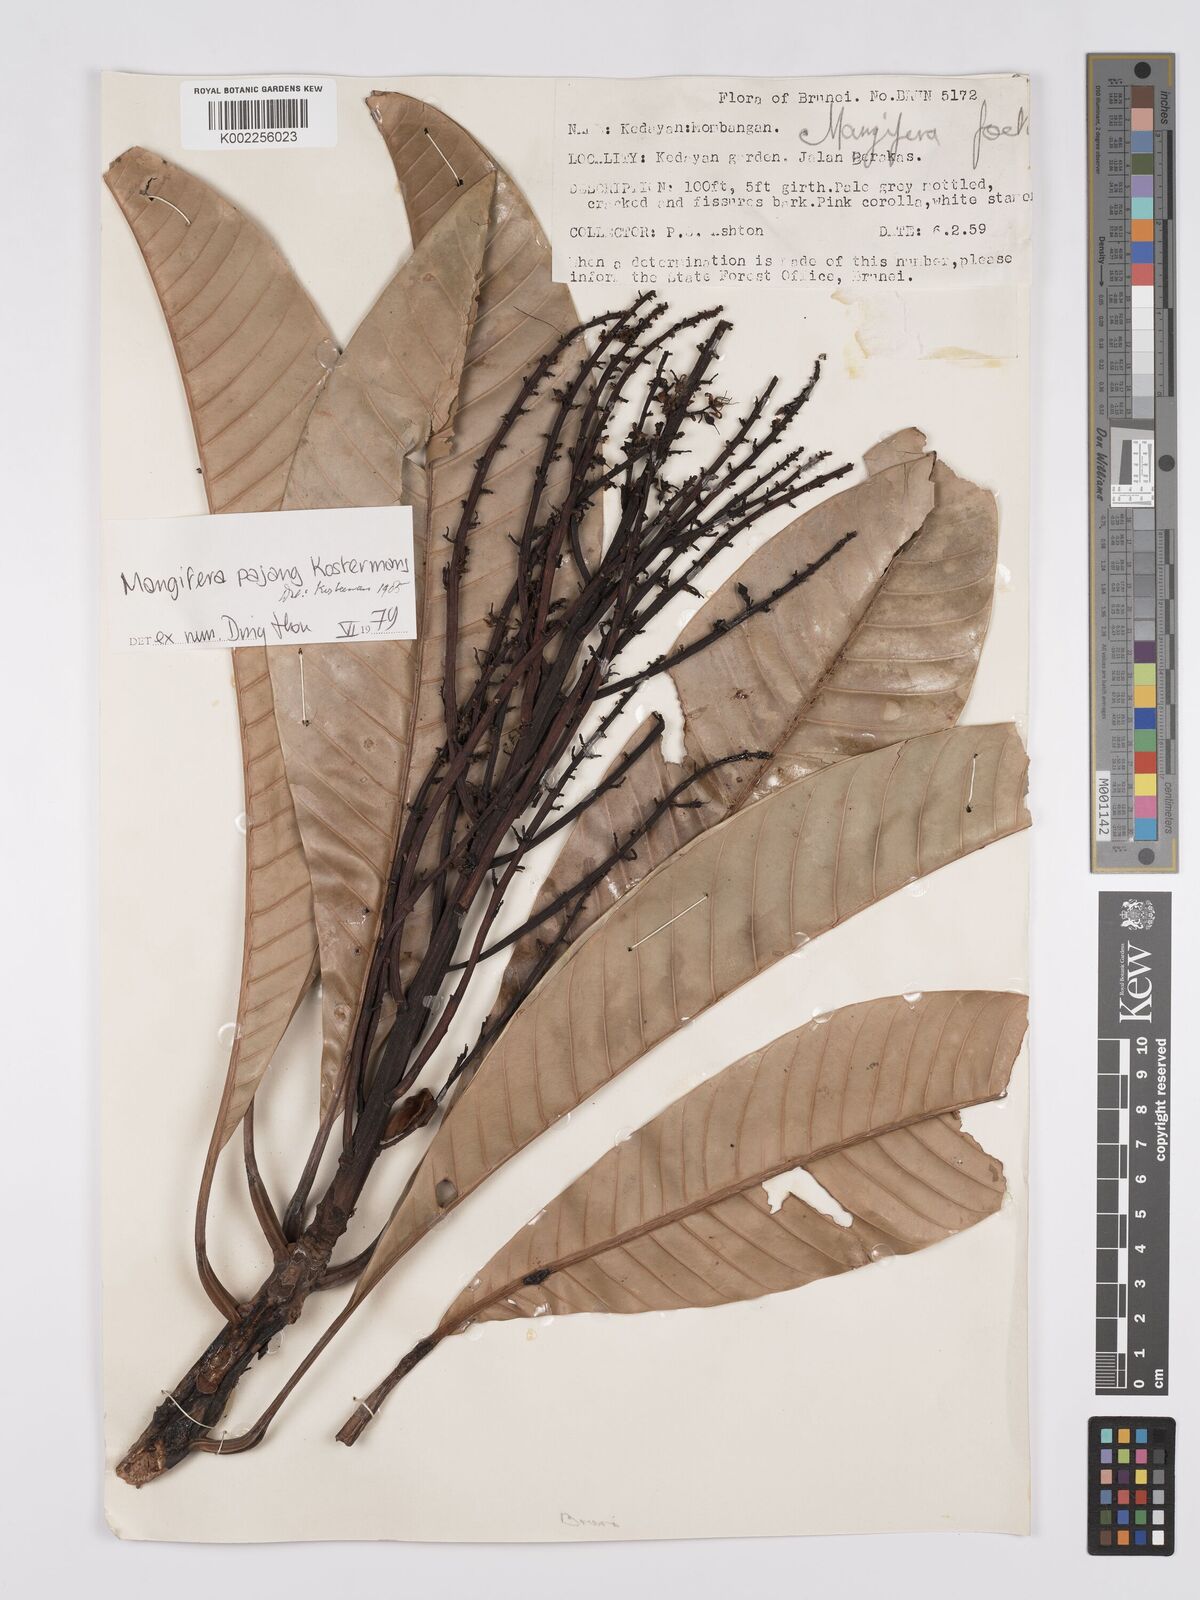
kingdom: Plantae
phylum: Tracheophyta
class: Magnoliopsida
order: Sapindales
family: Anacardiaceae
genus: Mangifera
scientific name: Mangifera pajang
